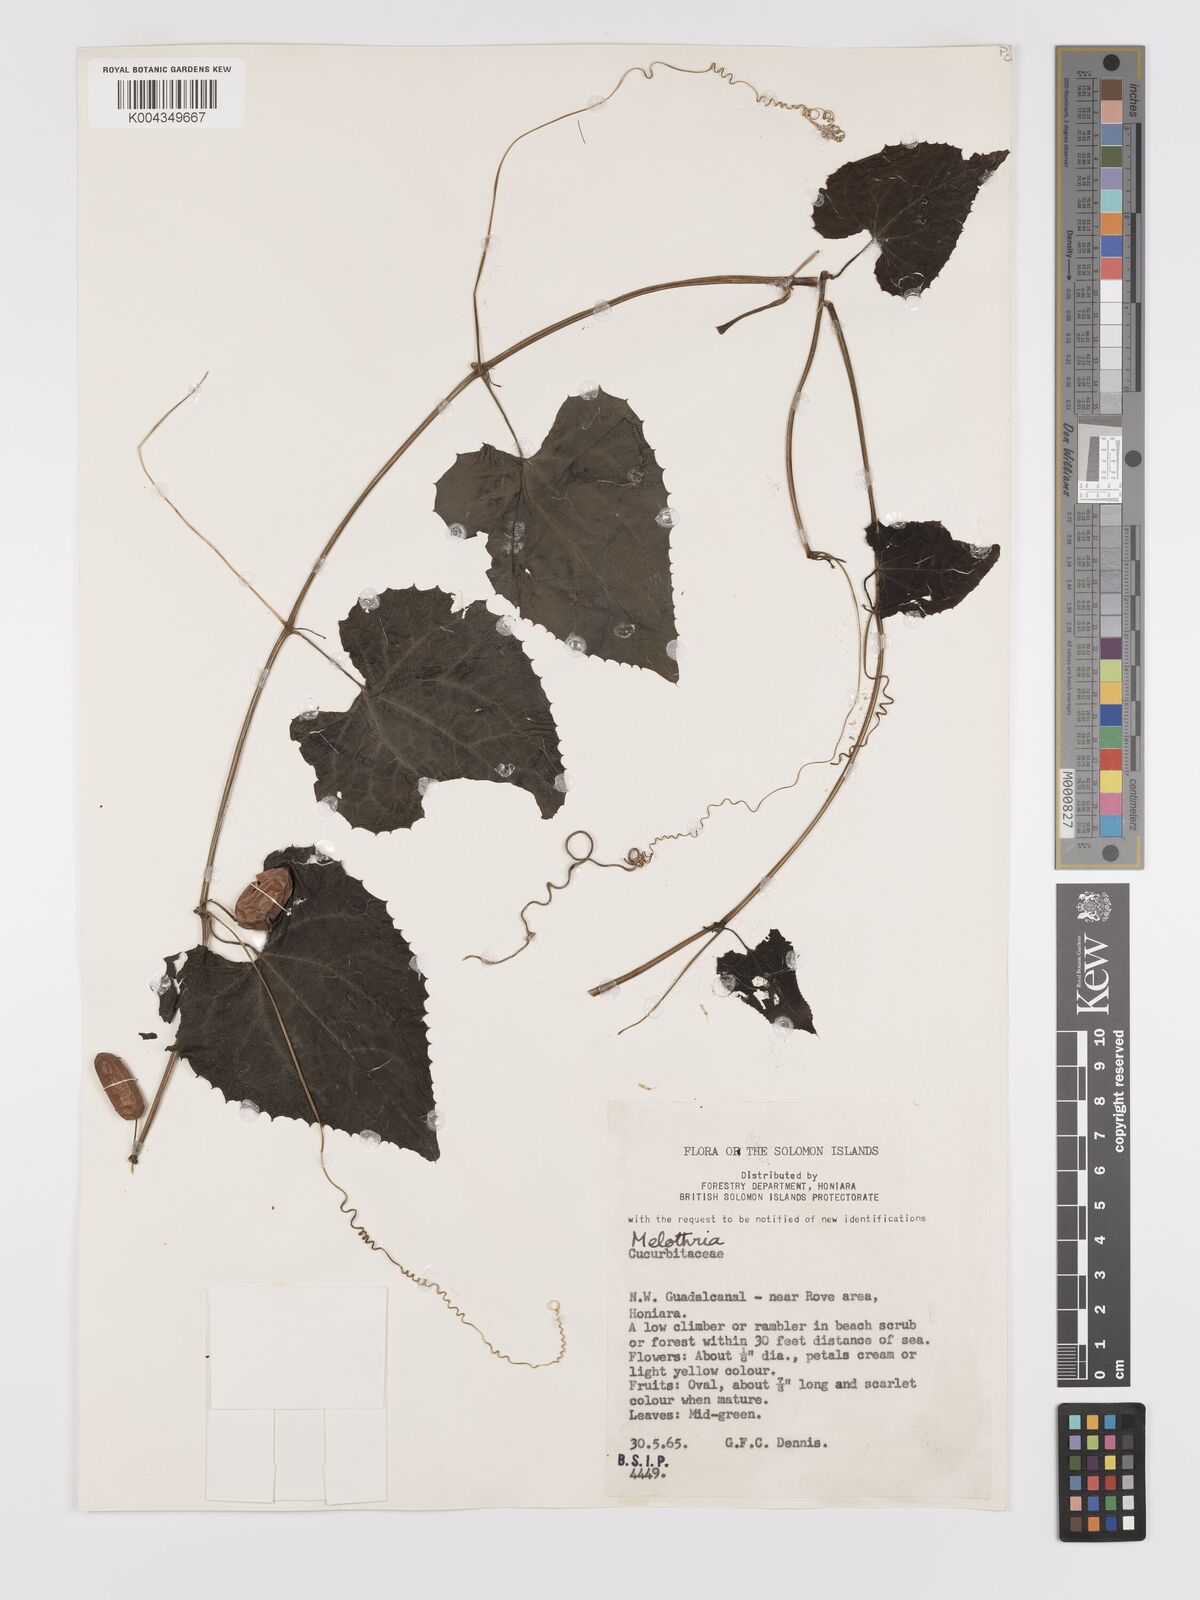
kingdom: Plantae
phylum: Tracheophyta
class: Magnoliopsida
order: Cucurbitales
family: Cucurbitaceae
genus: Zehneria
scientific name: Zehneria mucronata
